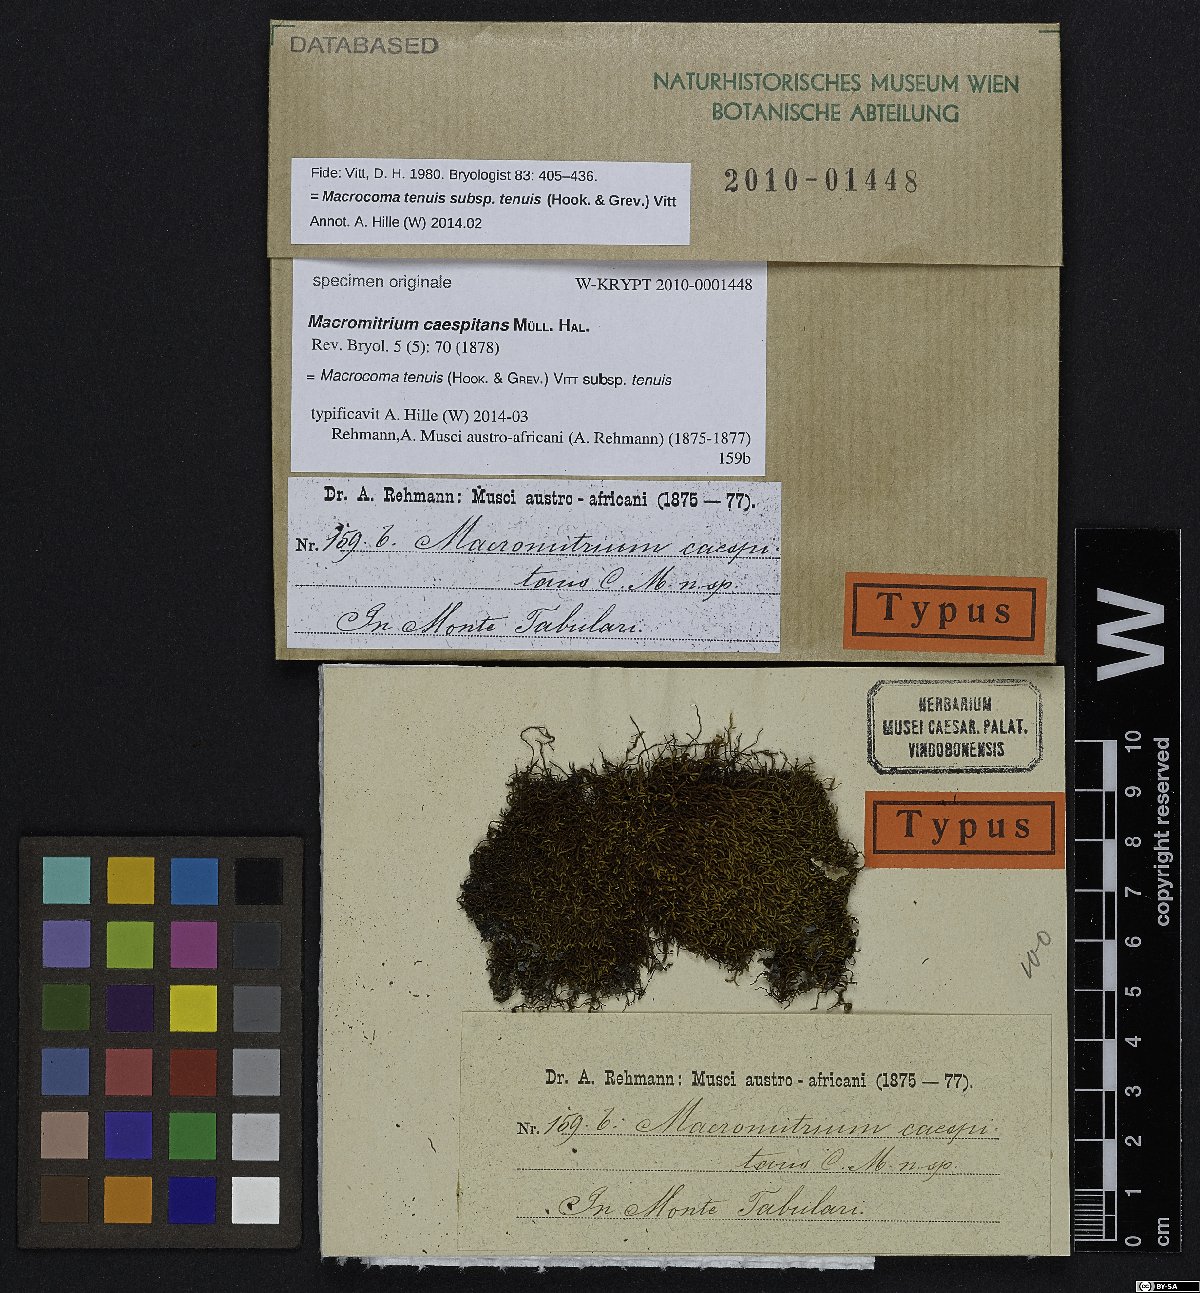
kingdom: Plantae
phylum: Bryophyta
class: Bryopsida
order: Orthotrichales
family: Orthotrichaceae
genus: Macromitrium
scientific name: Macromitrium
